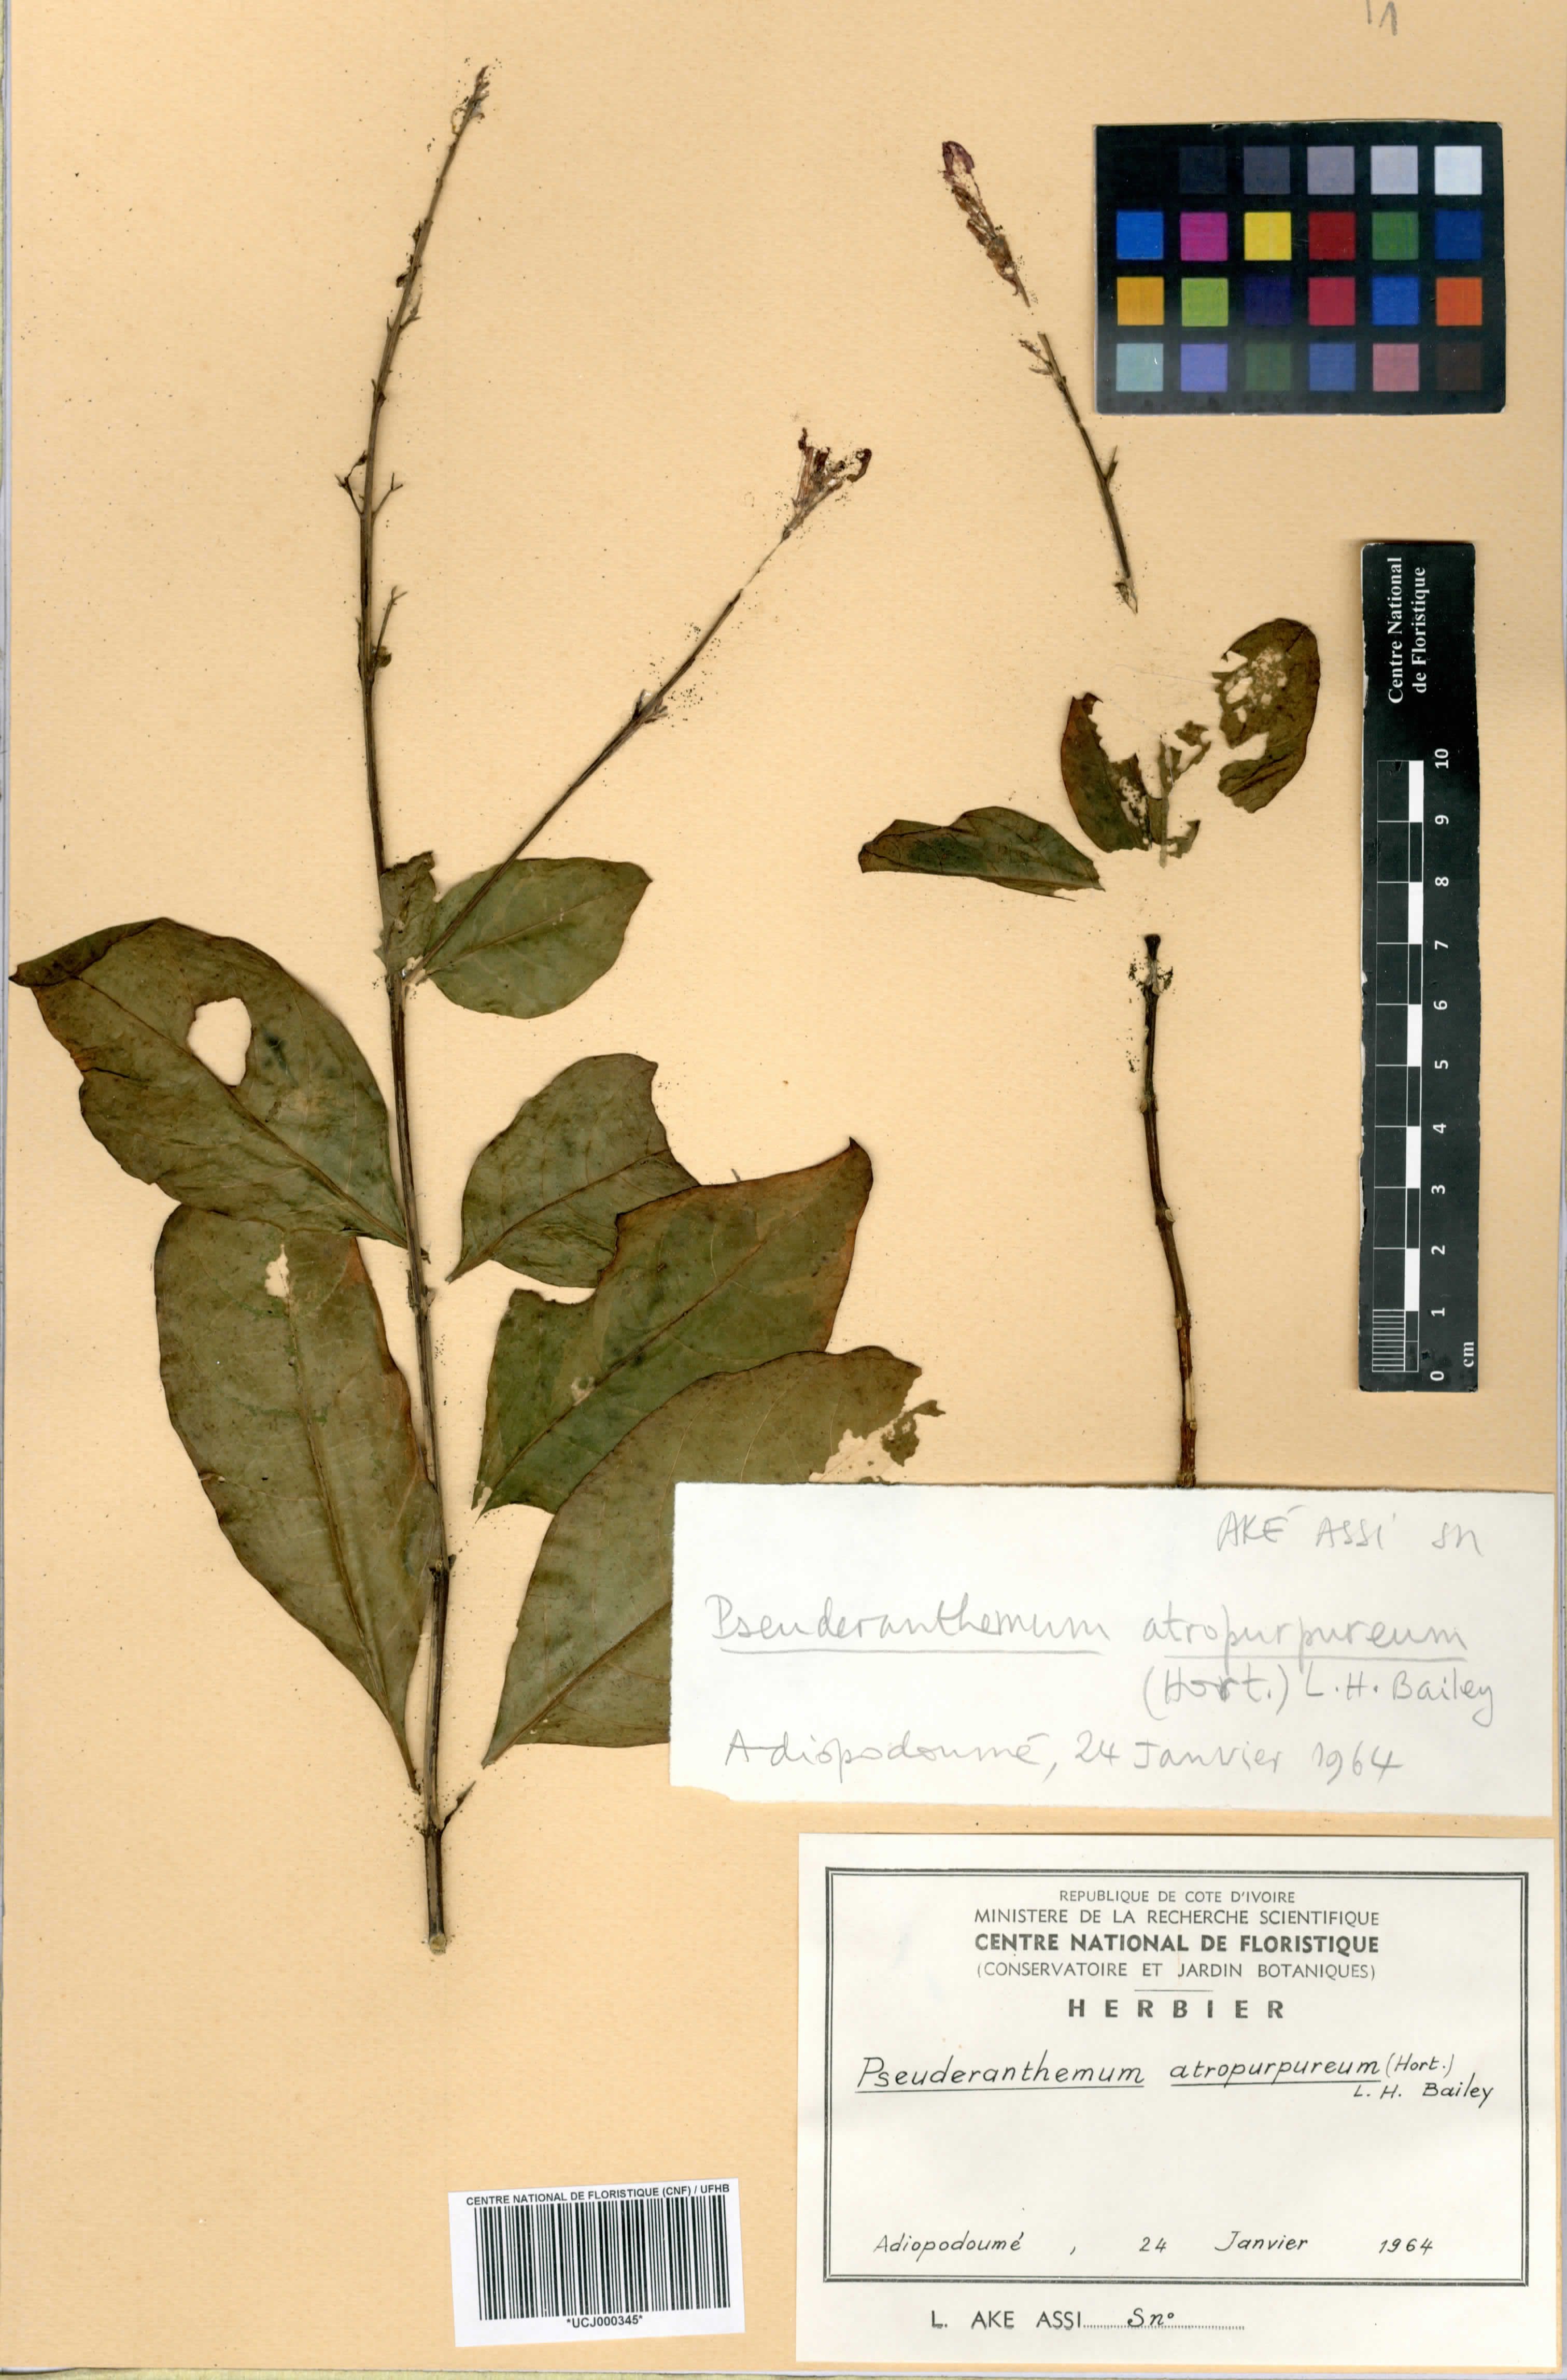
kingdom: Plantae
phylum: Tracheophyta
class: Magnoliopsida
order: Lamiales
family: Acanthaceae
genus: Pseuderanthemum
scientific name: Pseuderanthemum maculatum
